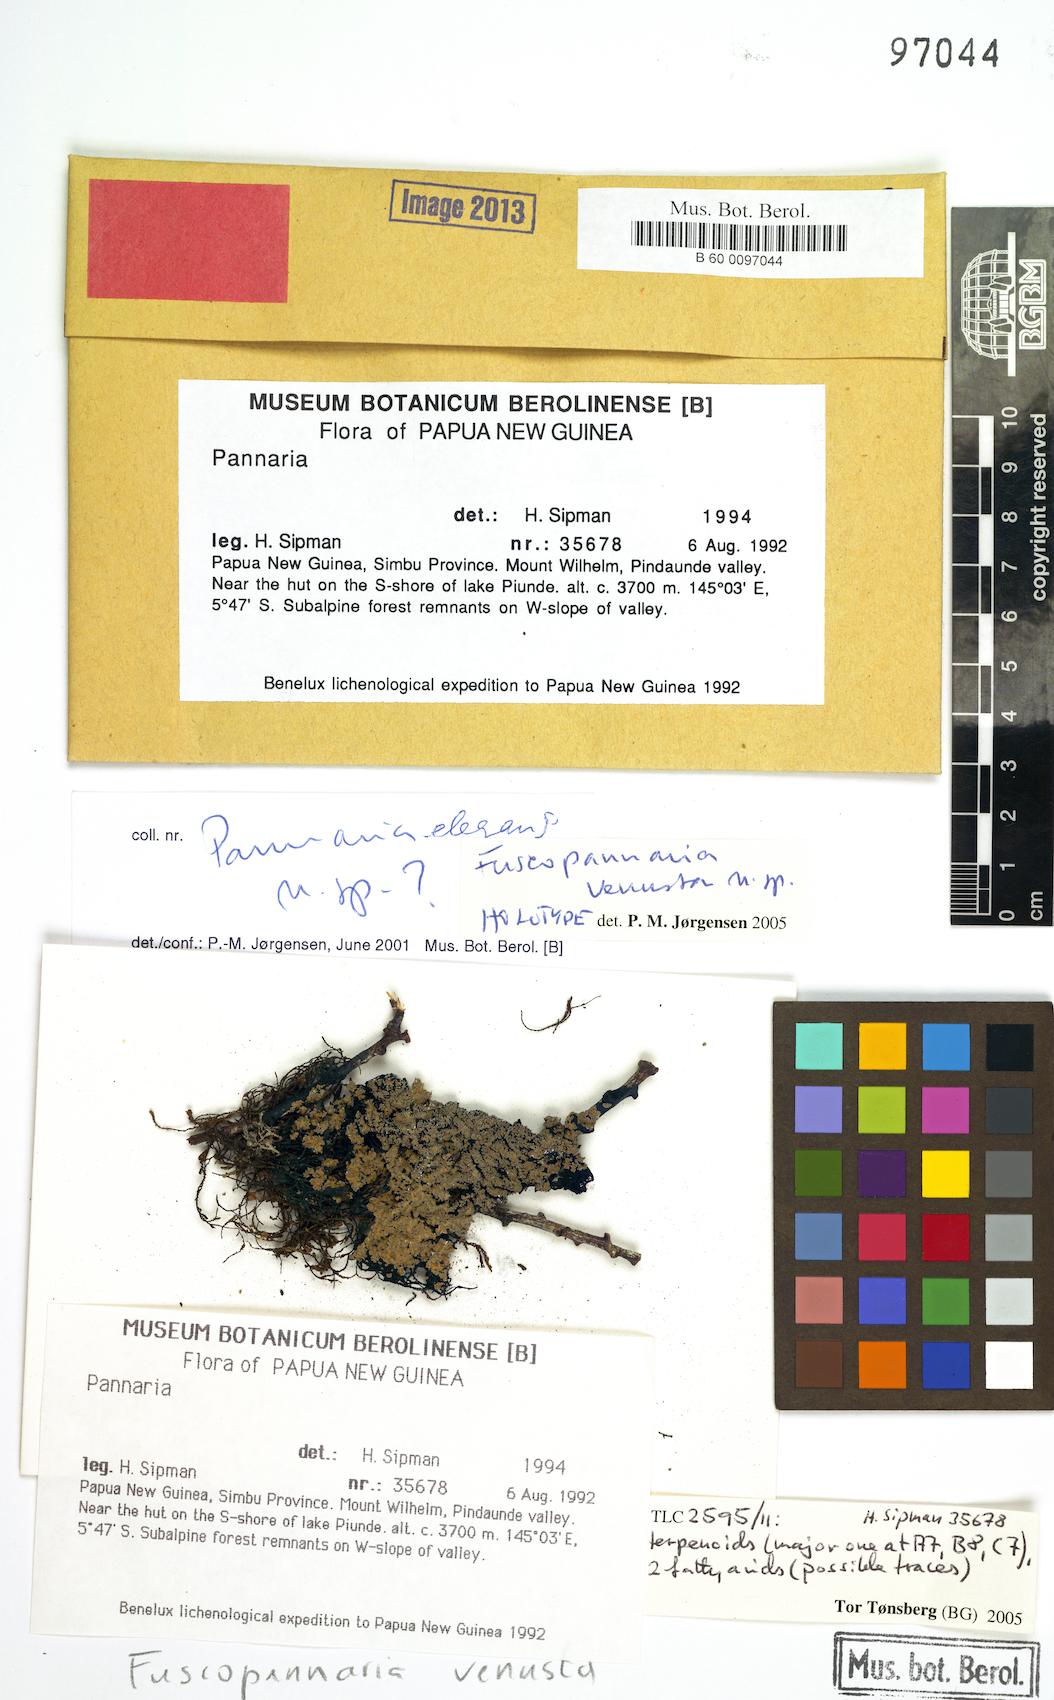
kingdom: Fungi
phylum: Ascomycota
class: Lecanoromycetes
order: Peltigerales
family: Pannariaceae
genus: Fuscopannaria
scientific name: Fuscopannaria venusta
